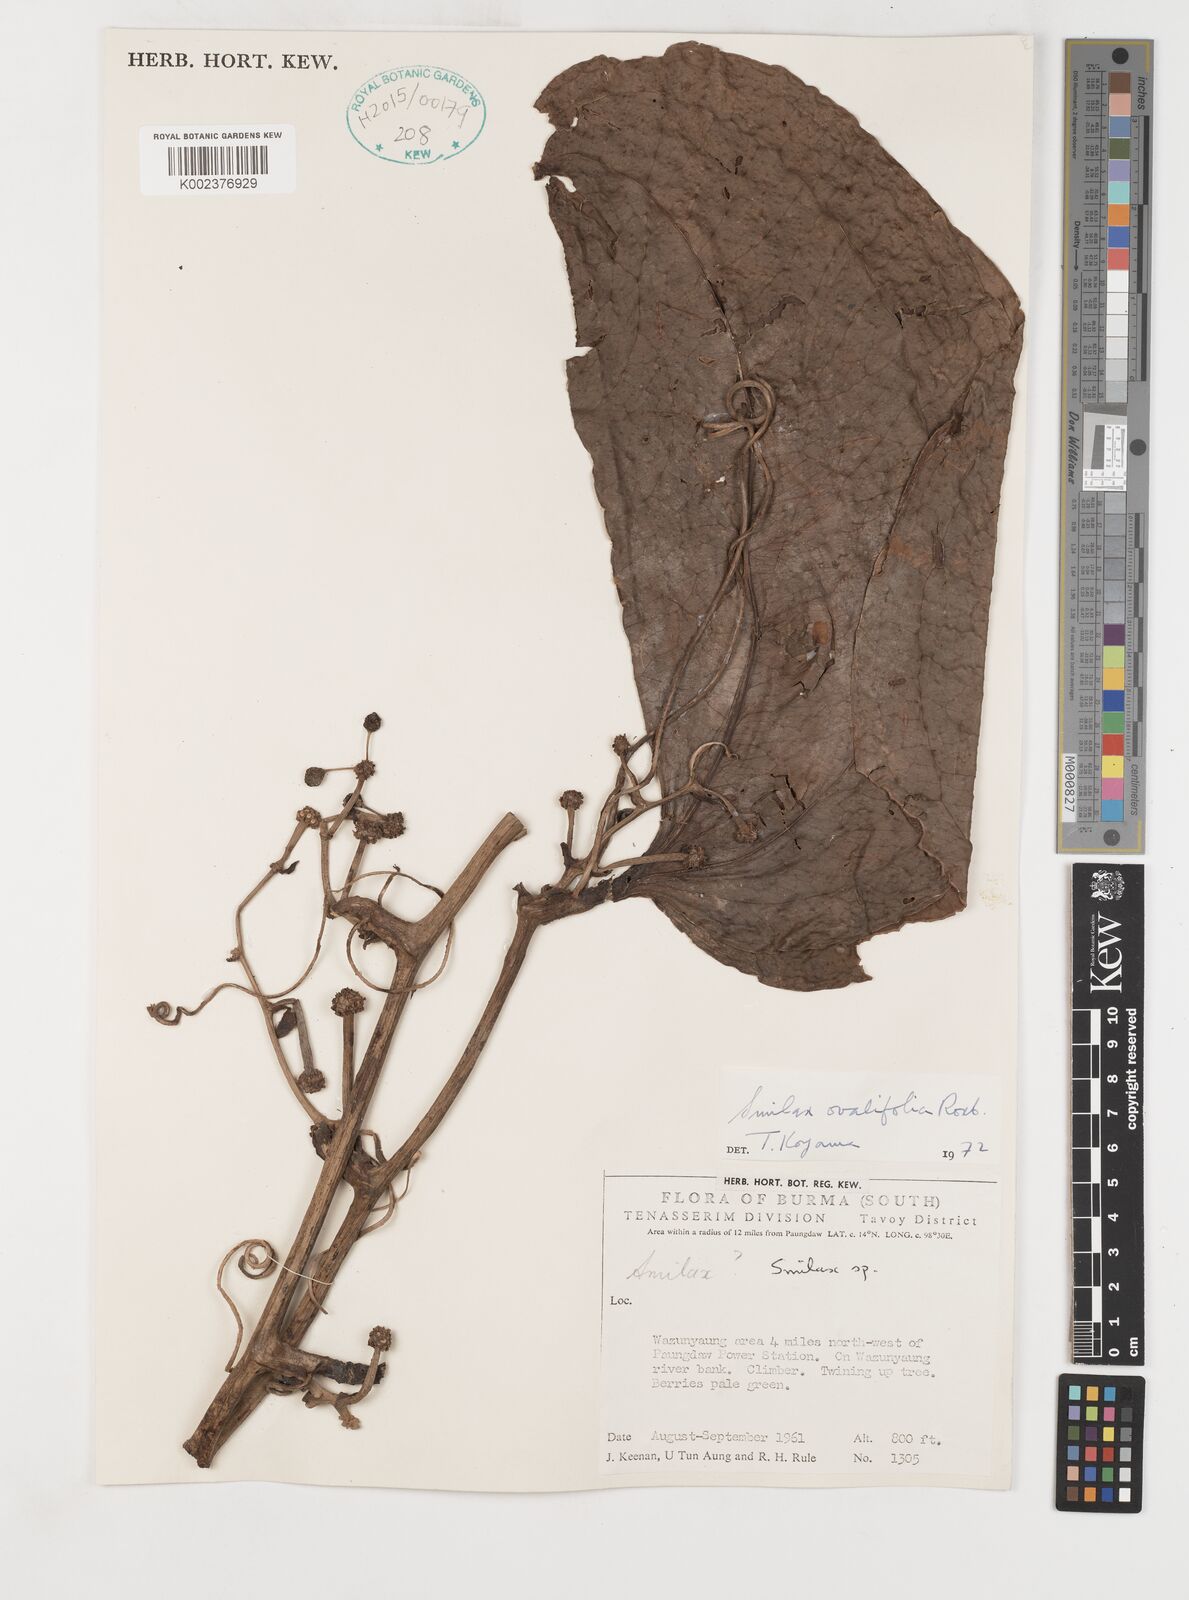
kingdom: Plantae
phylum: Tracheophyta
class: Liliopsida
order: Liliales
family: Smilacaceae
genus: Smilax
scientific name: Smilax ovalifolia
